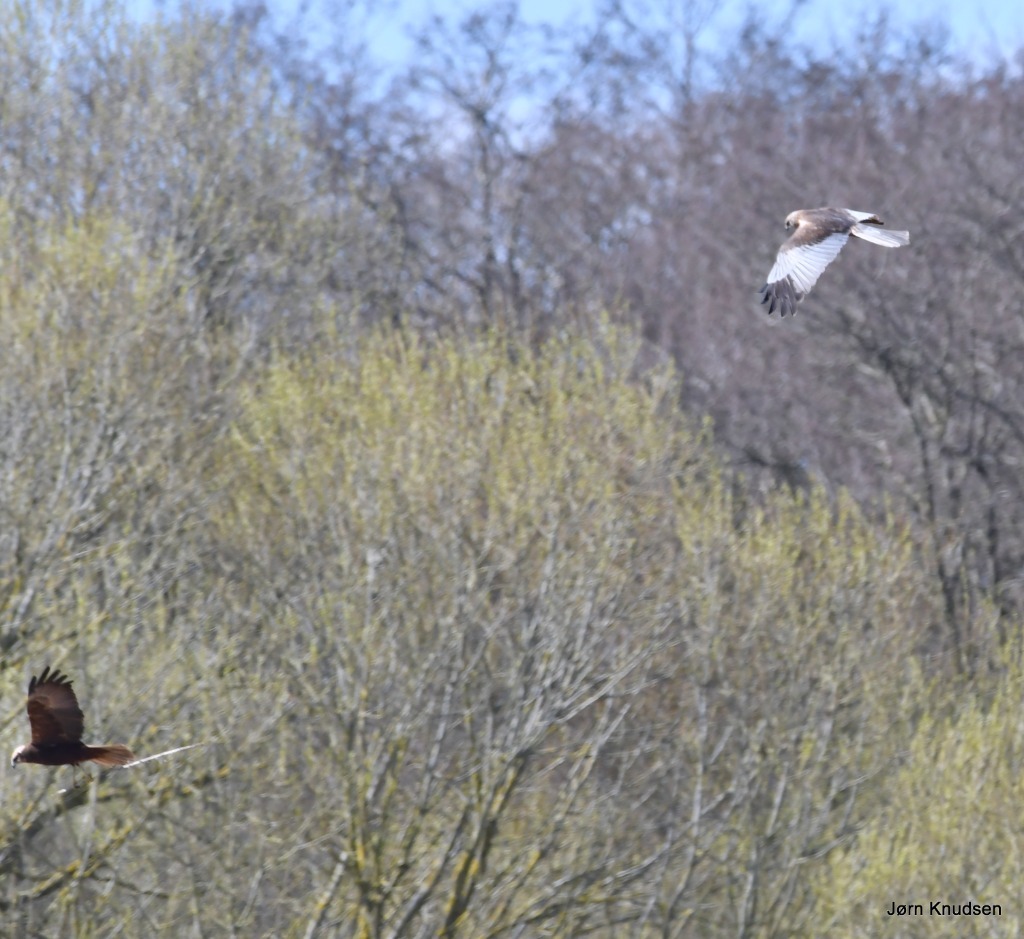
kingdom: Animalia
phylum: Chordata
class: Aves
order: Accipitriformes
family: Accipitridae
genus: Circus
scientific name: Circus aeruginosus
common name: Rørhøg
